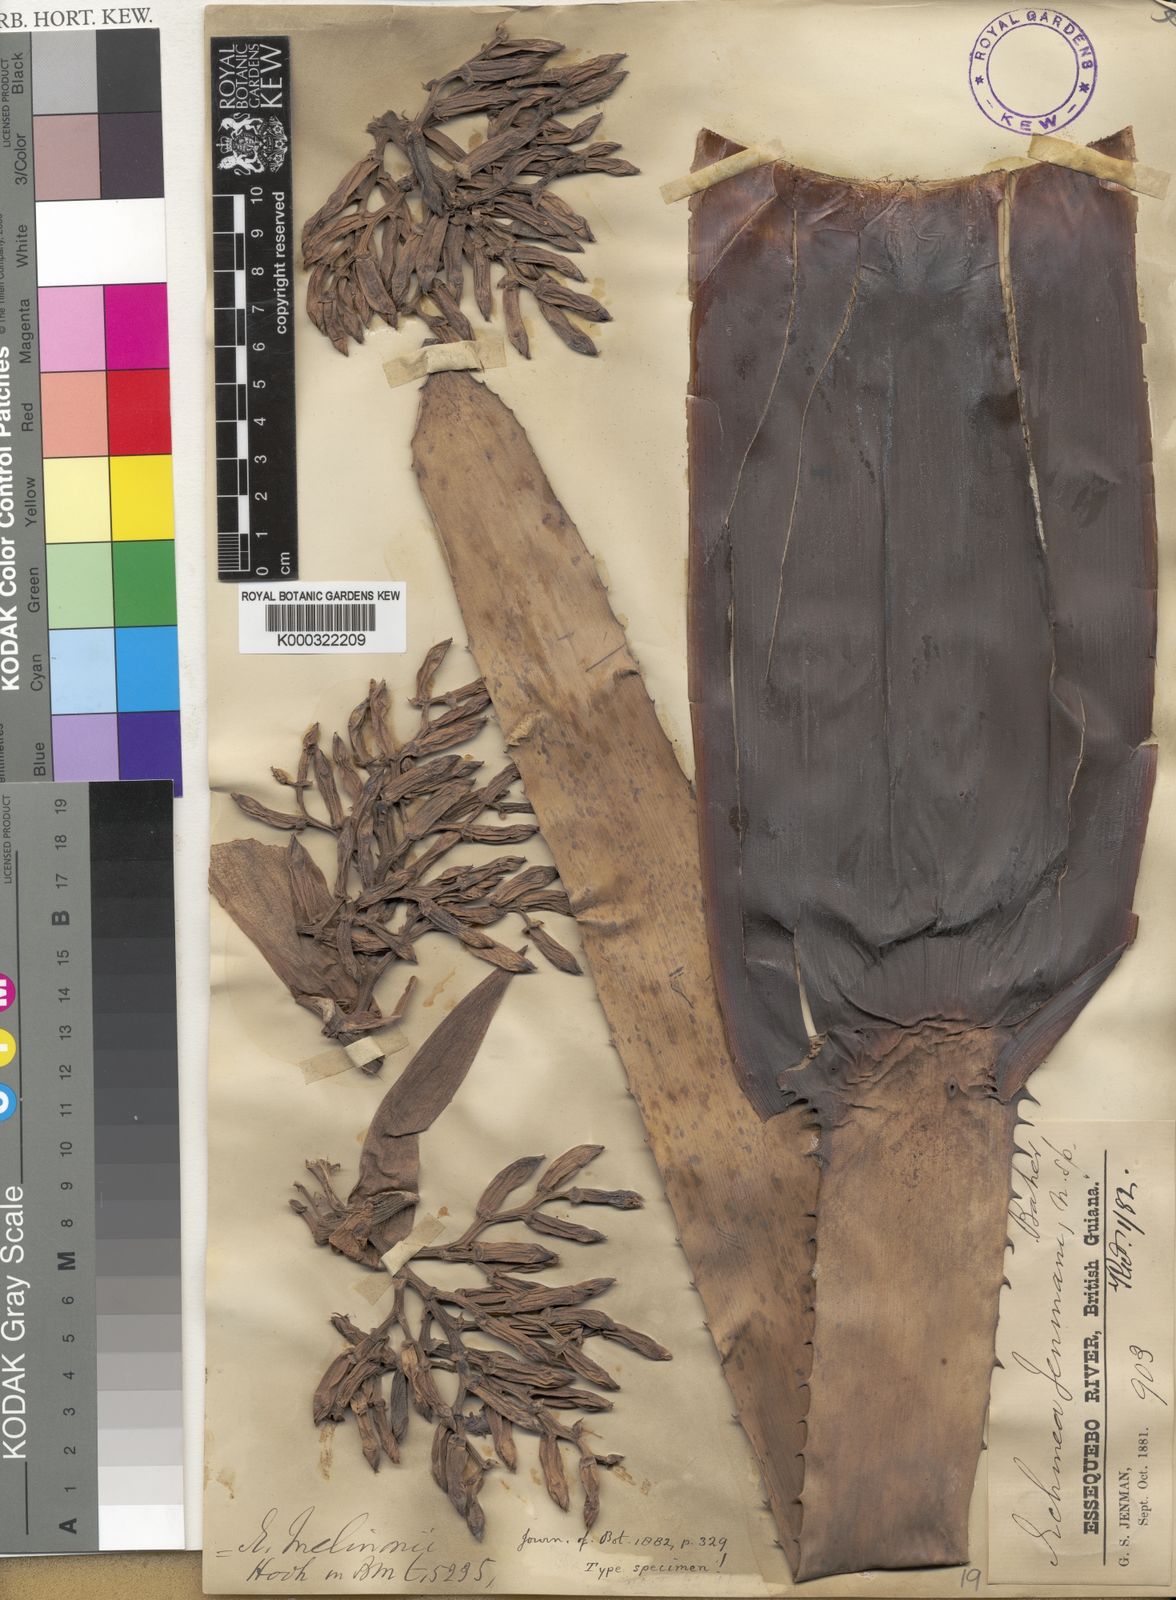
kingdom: Plantae
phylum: Tracheophyta
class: Liliopsida
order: Poales
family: Bromeliaceae
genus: Aechmea
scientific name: Aechmea melinonii
